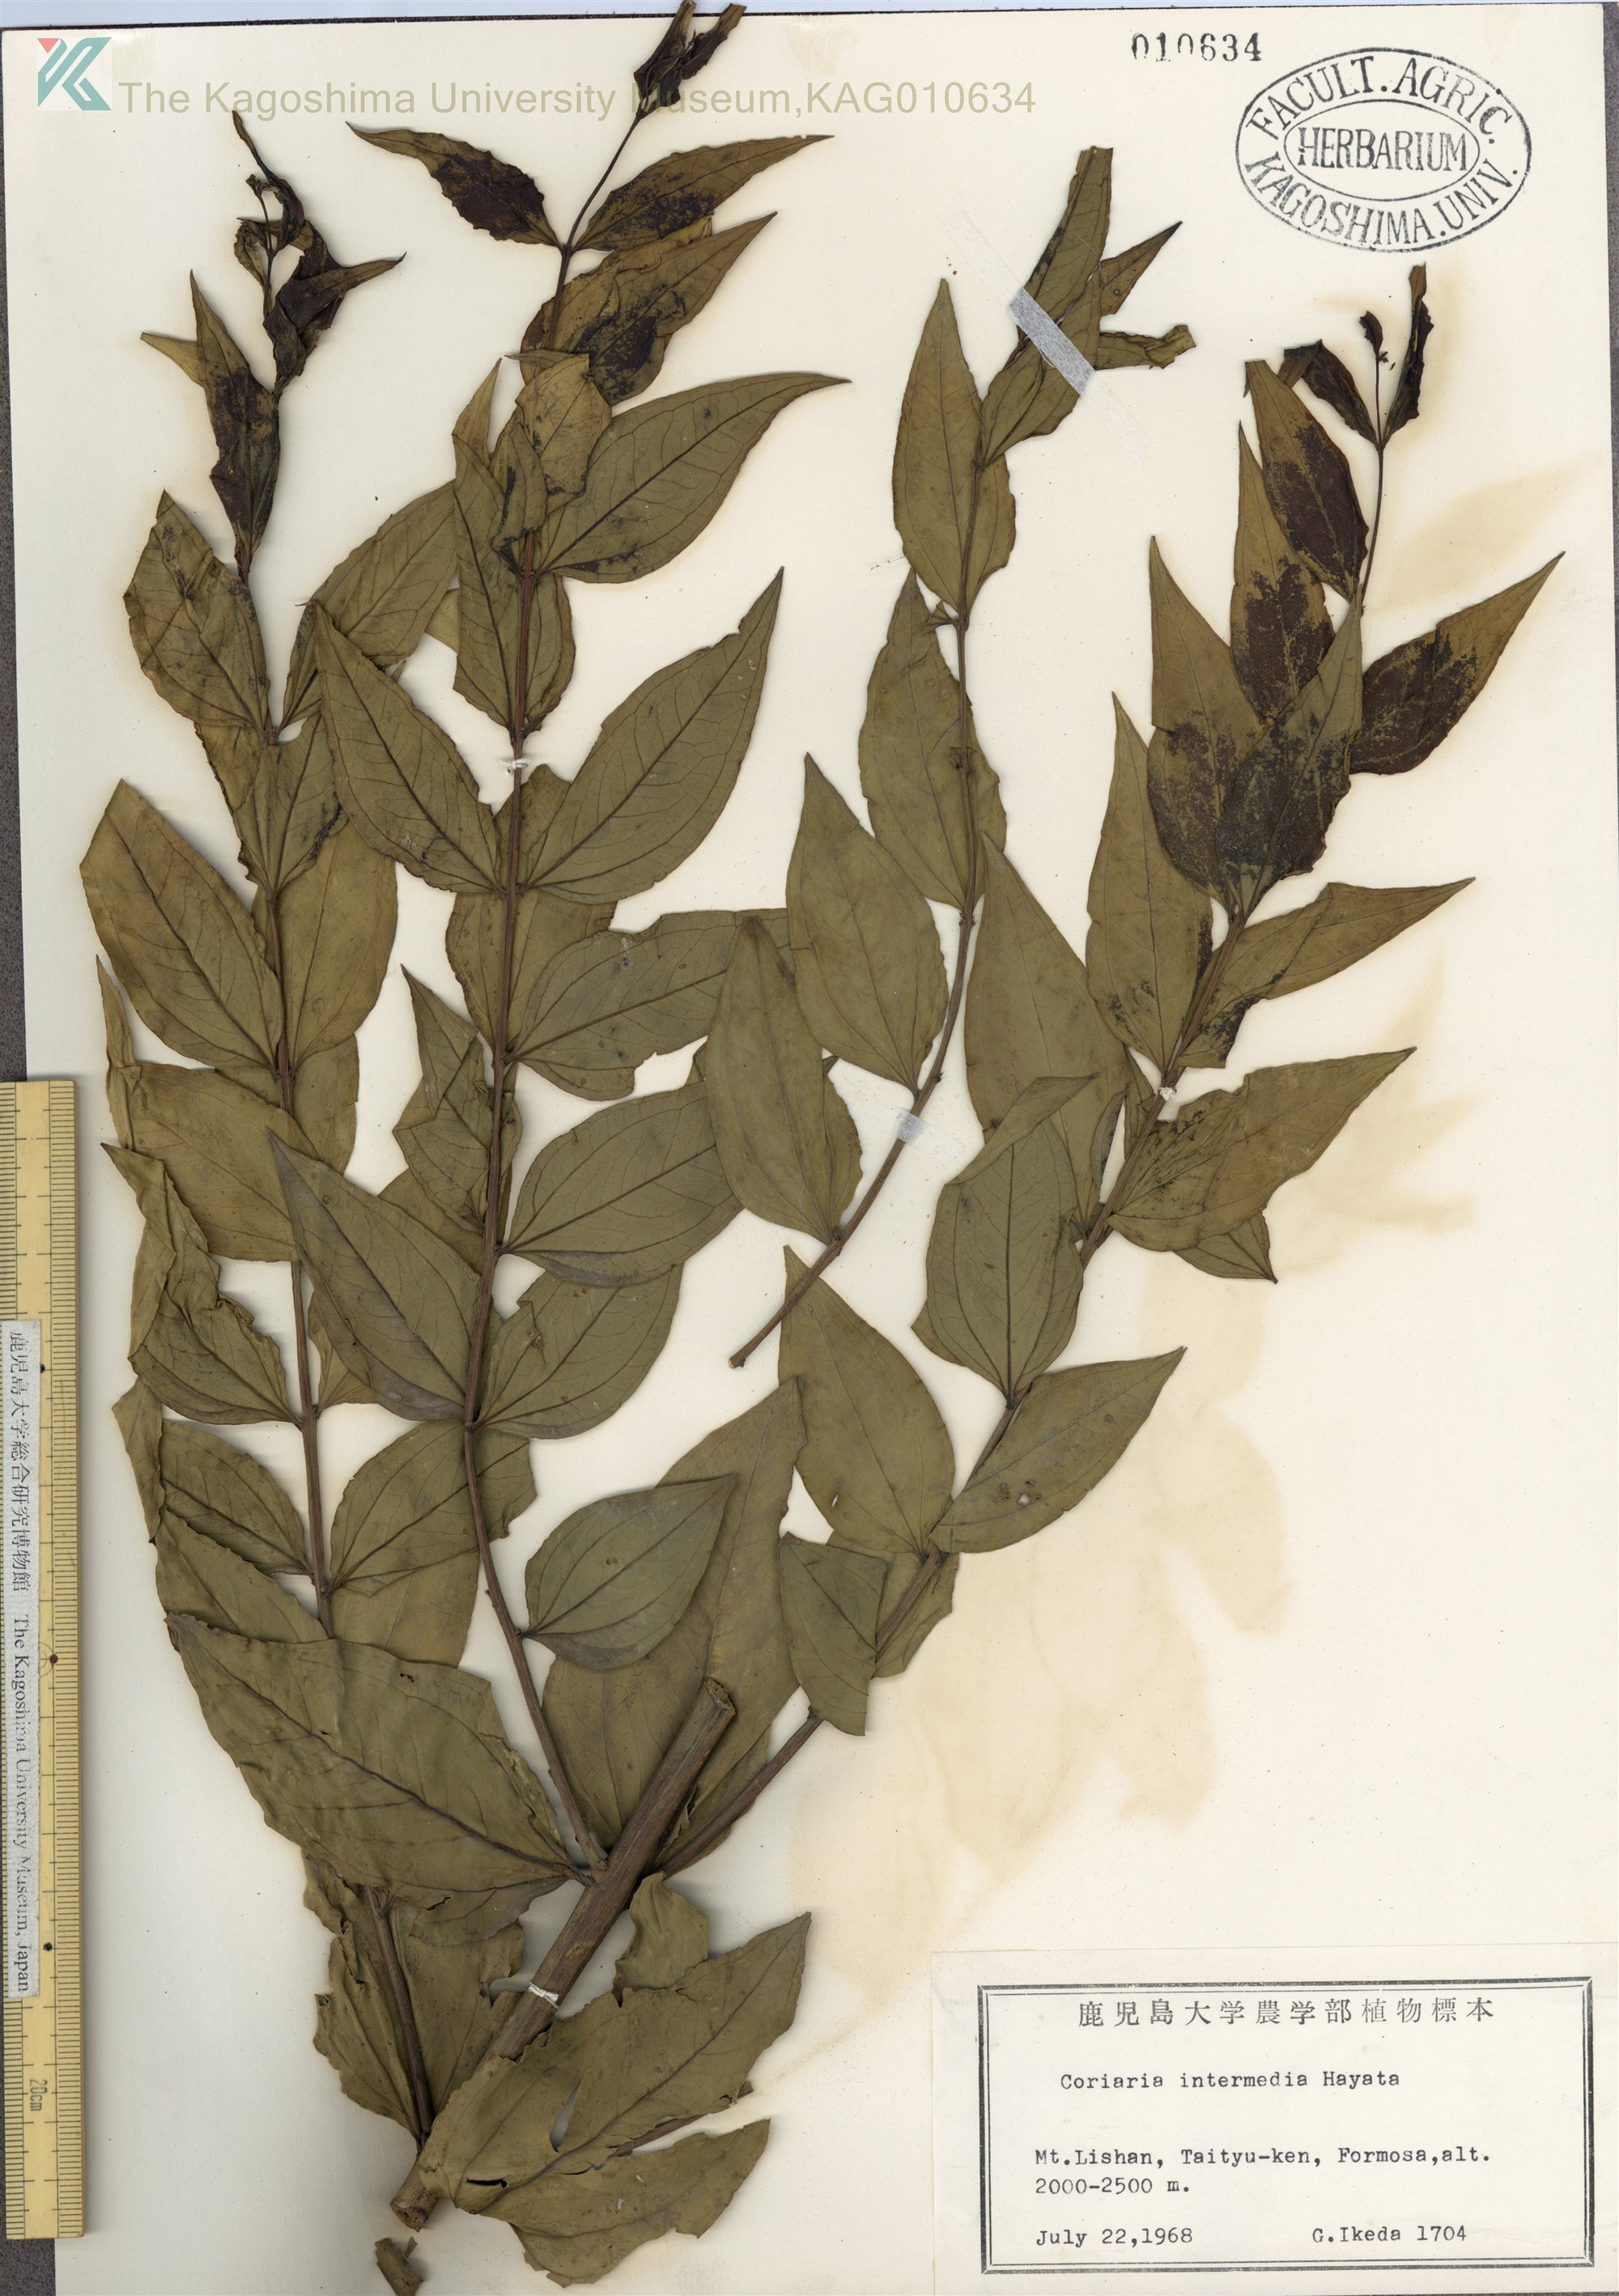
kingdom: Plantae
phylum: Tracheophyta
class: Magnoliopsida
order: Cucurbitales
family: Coriariaceae
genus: Coriaria
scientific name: Coriaria japonica
